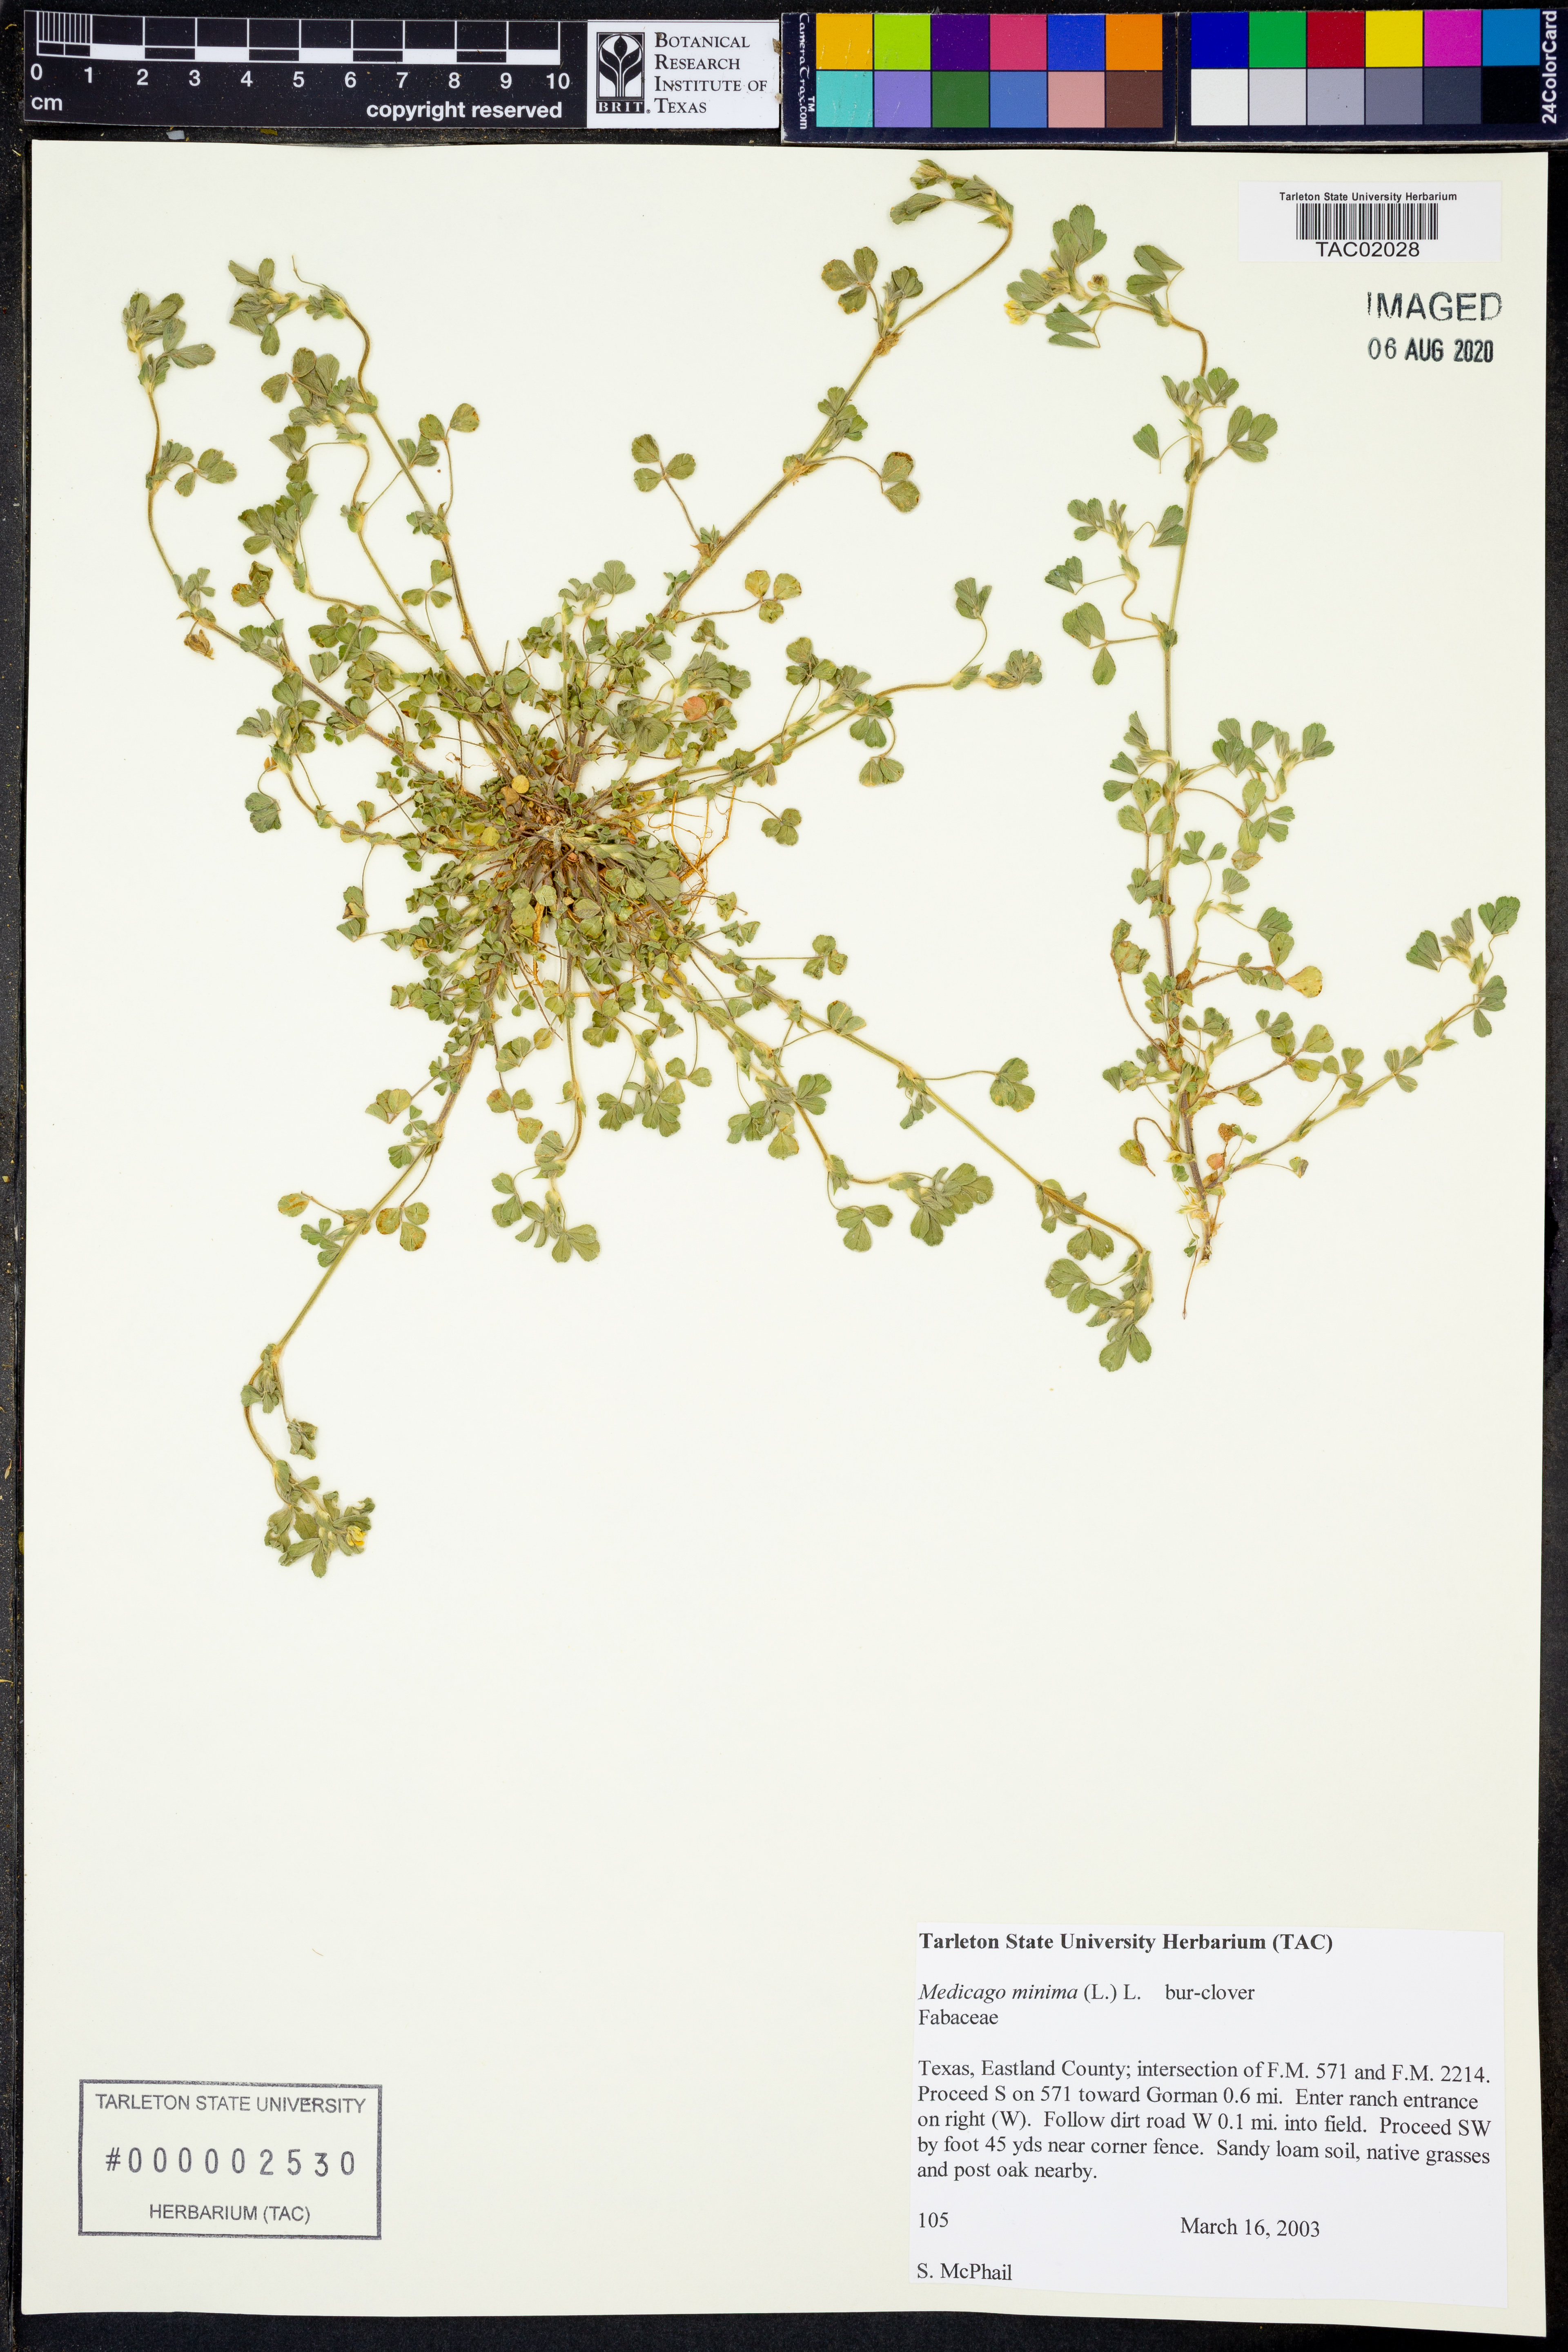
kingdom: Plantae
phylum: Tracheophyta
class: Magnoliopsida
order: Fabales
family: Fabaceae
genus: Medicago
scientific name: Medicago minima
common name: Little bur-clover
